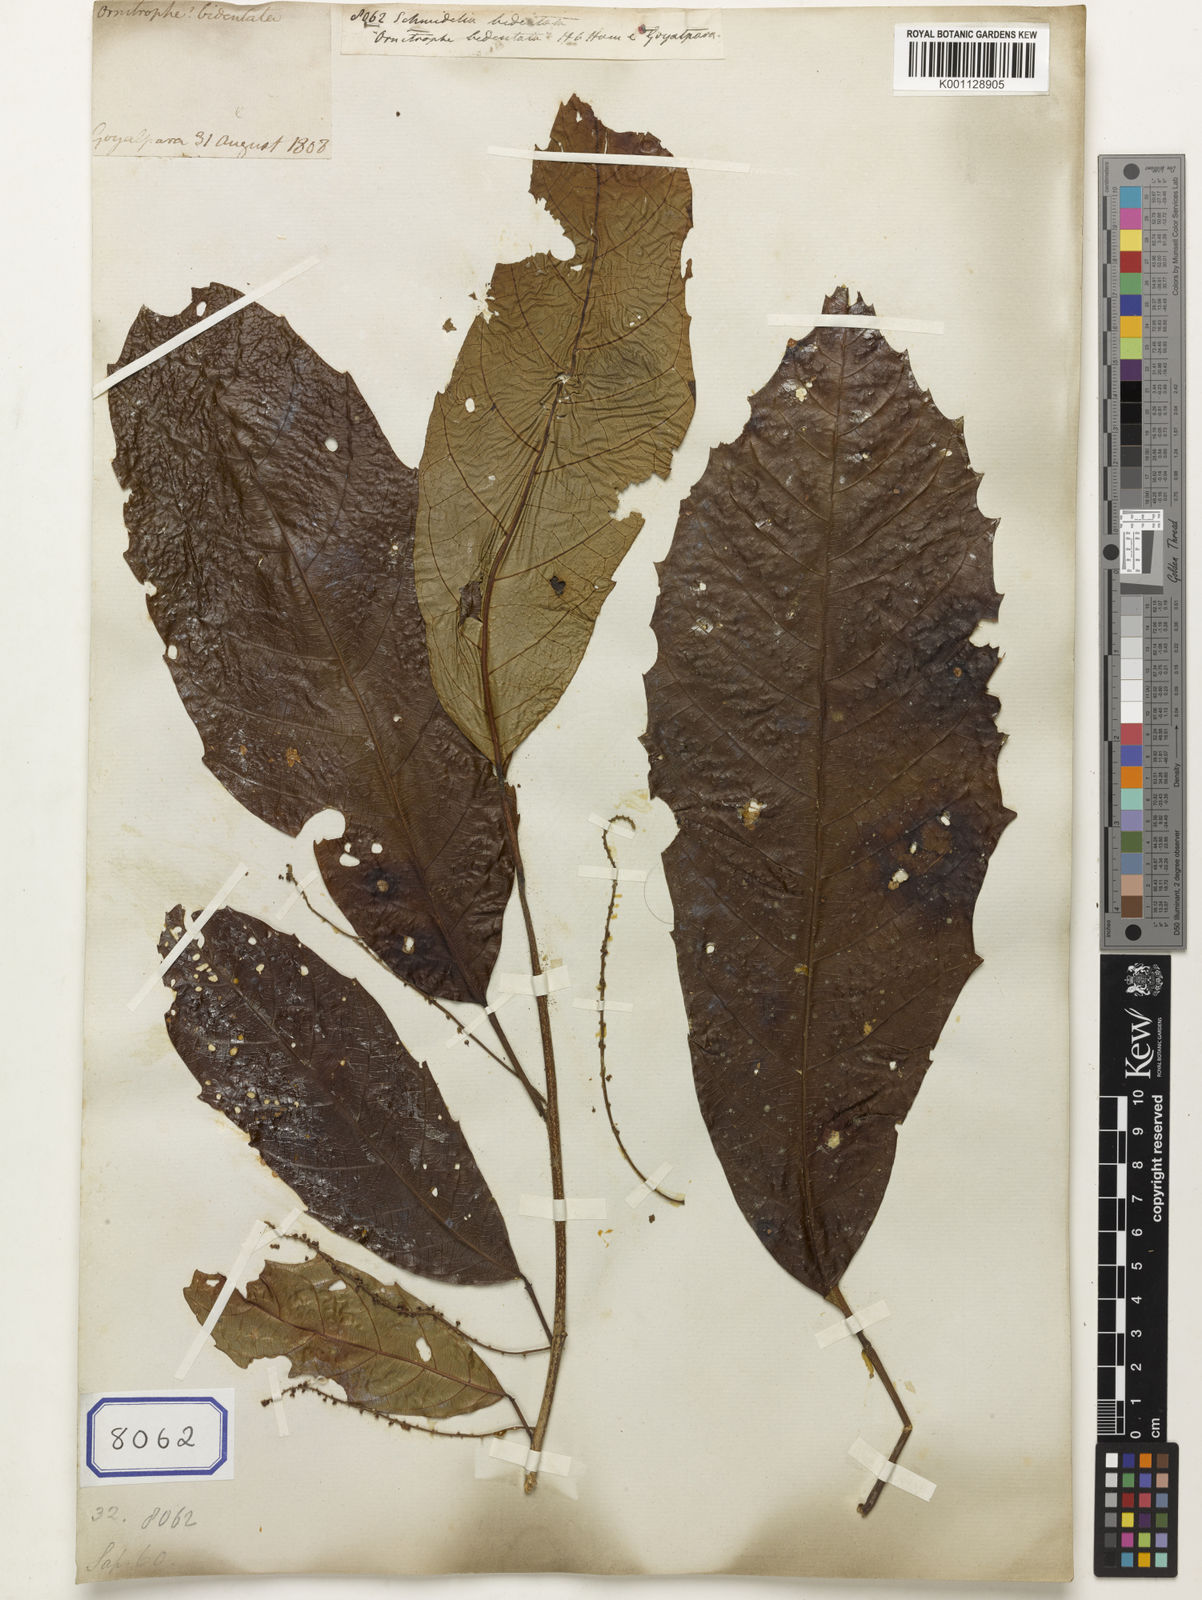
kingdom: Plantae
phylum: Tracheophyta
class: Magnoliopsida
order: Sapindales
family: Sapindaceae
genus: Allophylus
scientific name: Allophylus zeylanicus
